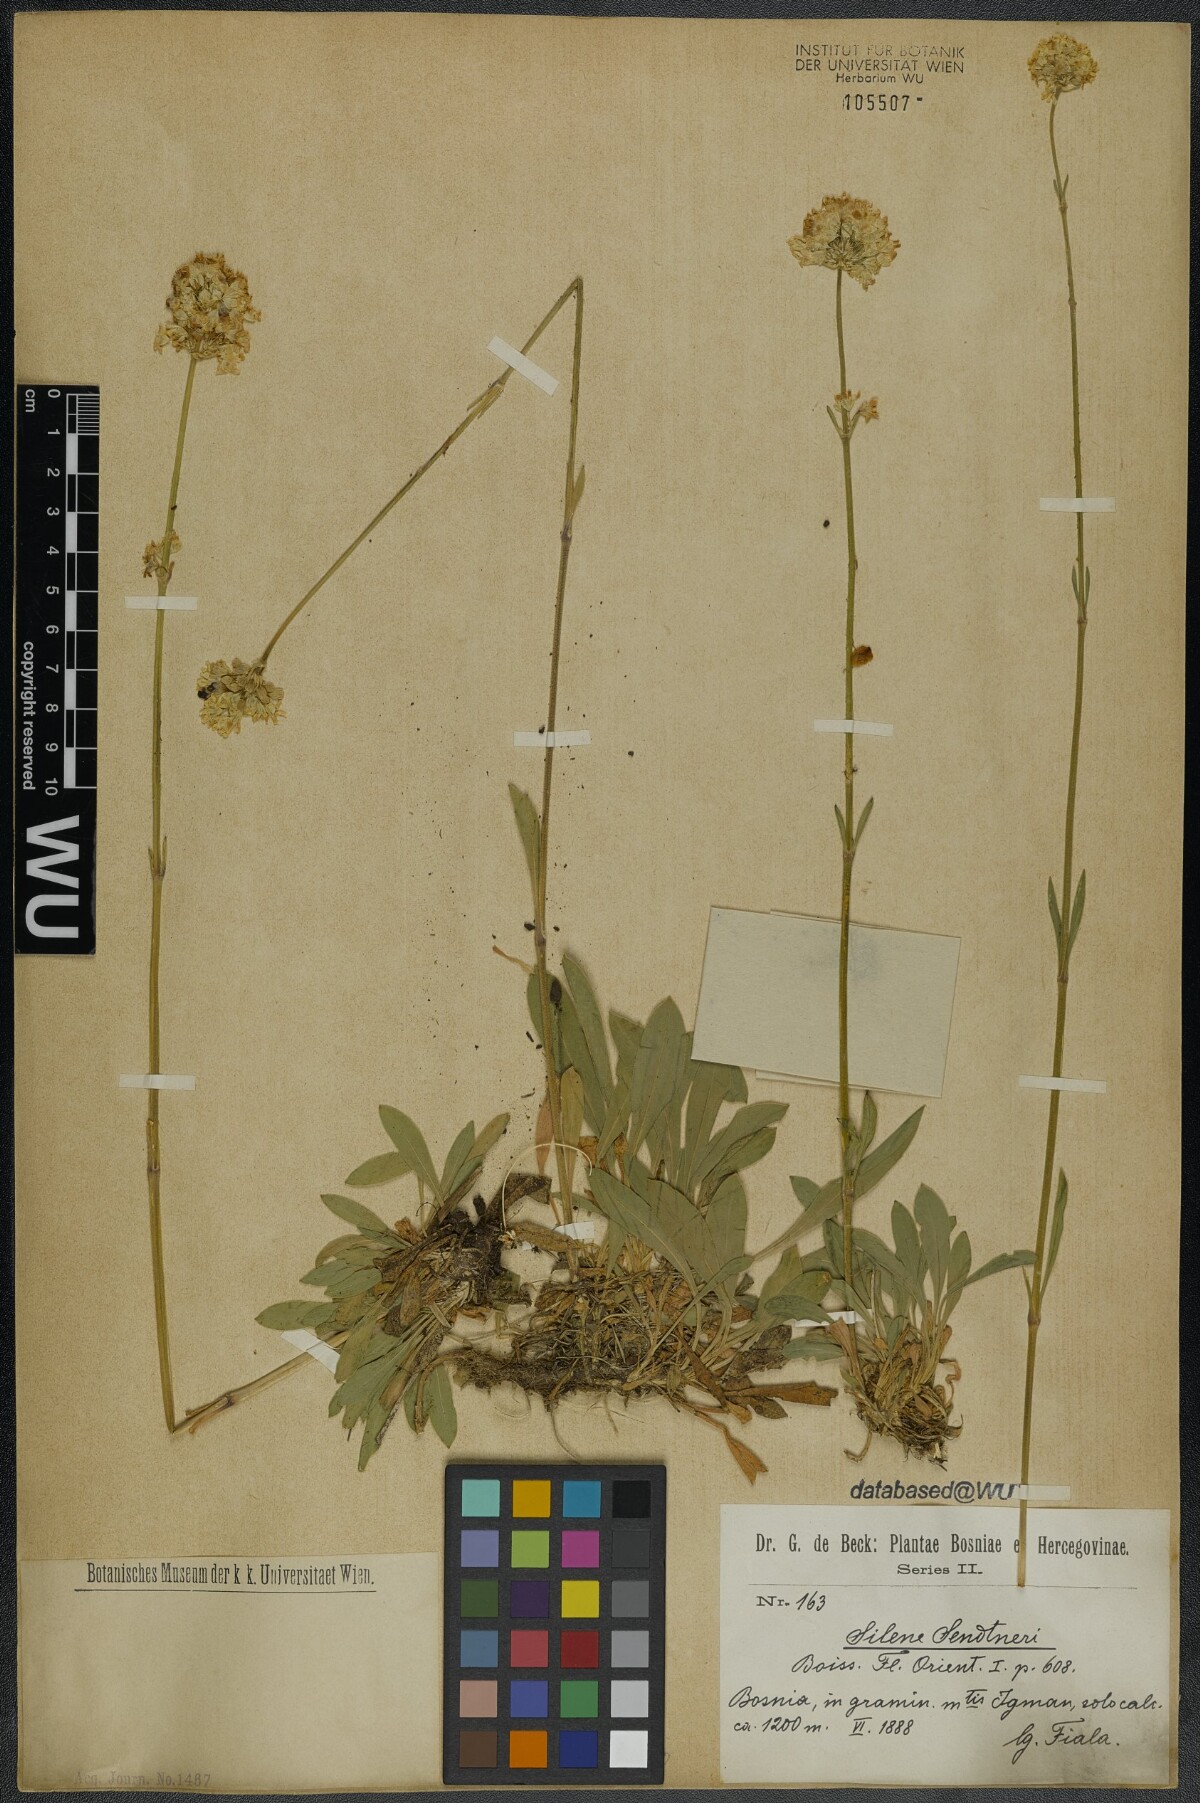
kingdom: Plantae
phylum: Tracheophyta
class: Magnoliopsida
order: Caryophyllales
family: Caryophyllaceae
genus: Silene
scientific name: Silene sendtneri
